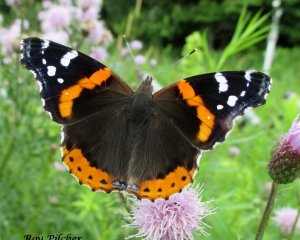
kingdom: Animalia
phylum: Arthropoda
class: Insecta
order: Lepidoptera
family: Nymphalidae
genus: Vanessa
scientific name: Vanessa atalanta
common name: Red Admiral
